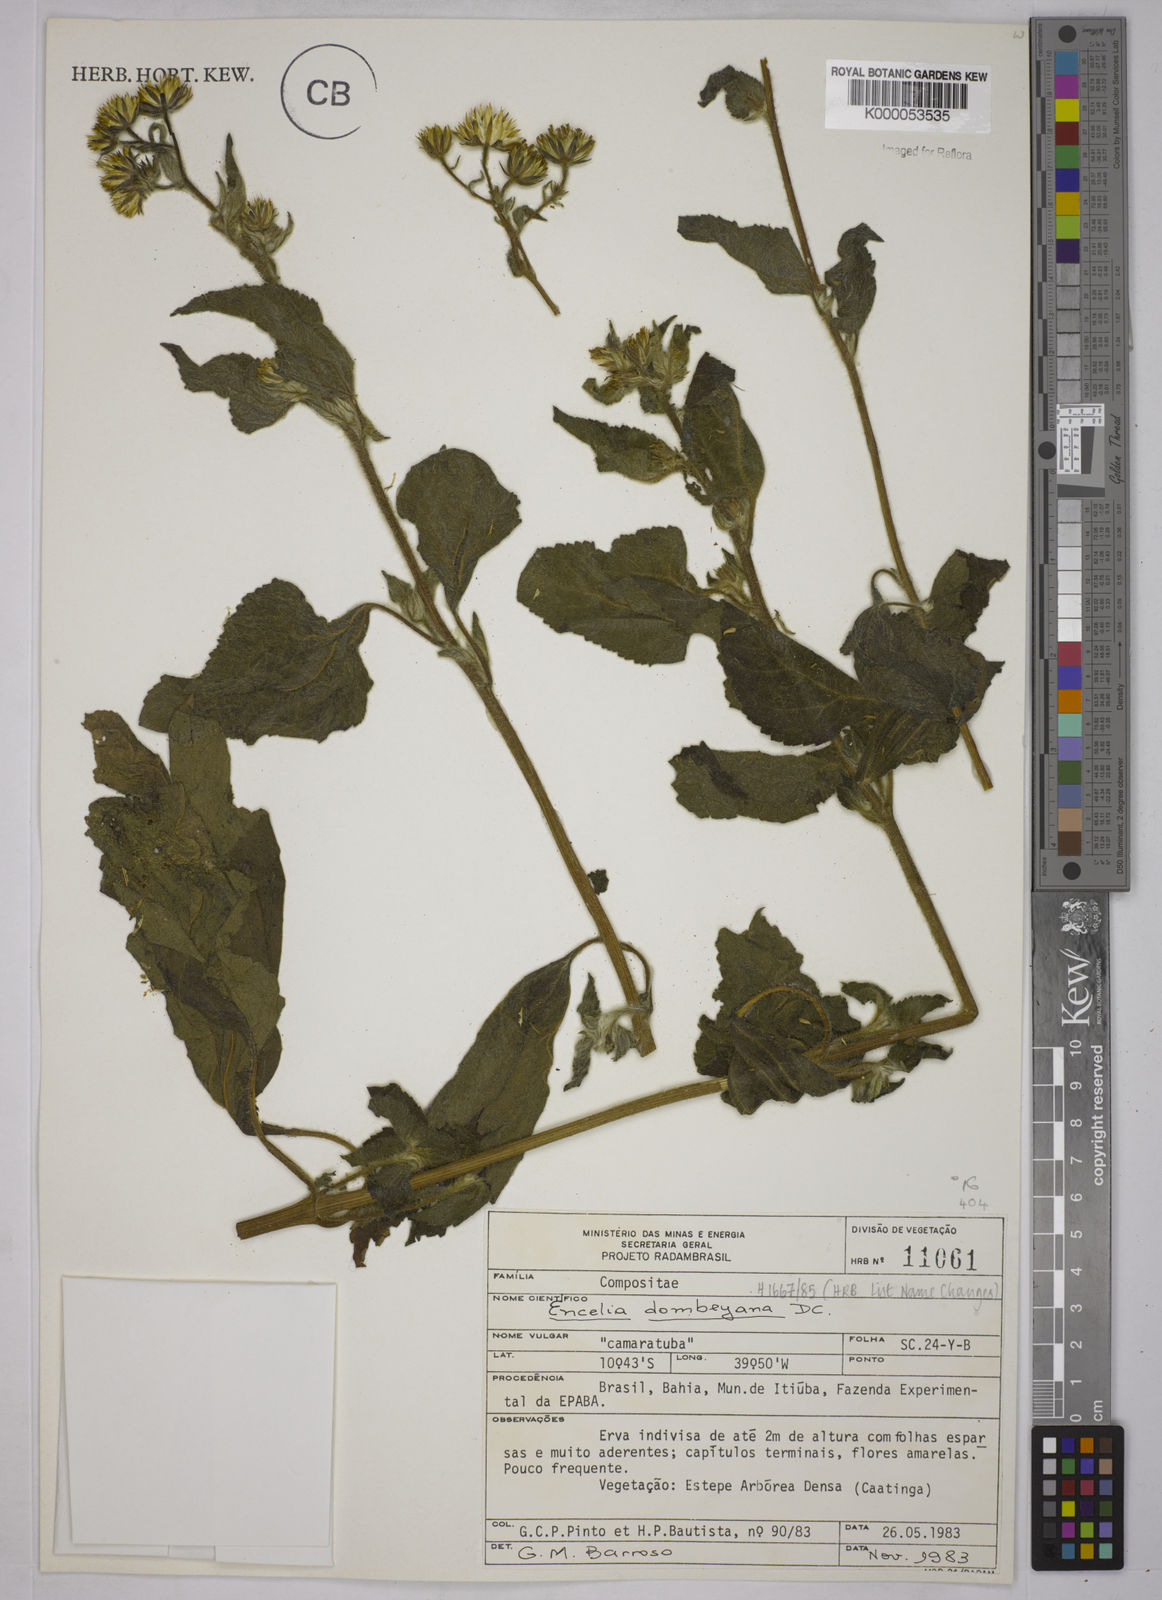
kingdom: Plantae
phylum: Tracheophyta
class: Magnoliopsida
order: Asterales
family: Asteraceae
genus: Simsia
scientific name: Simsia dombeyana
